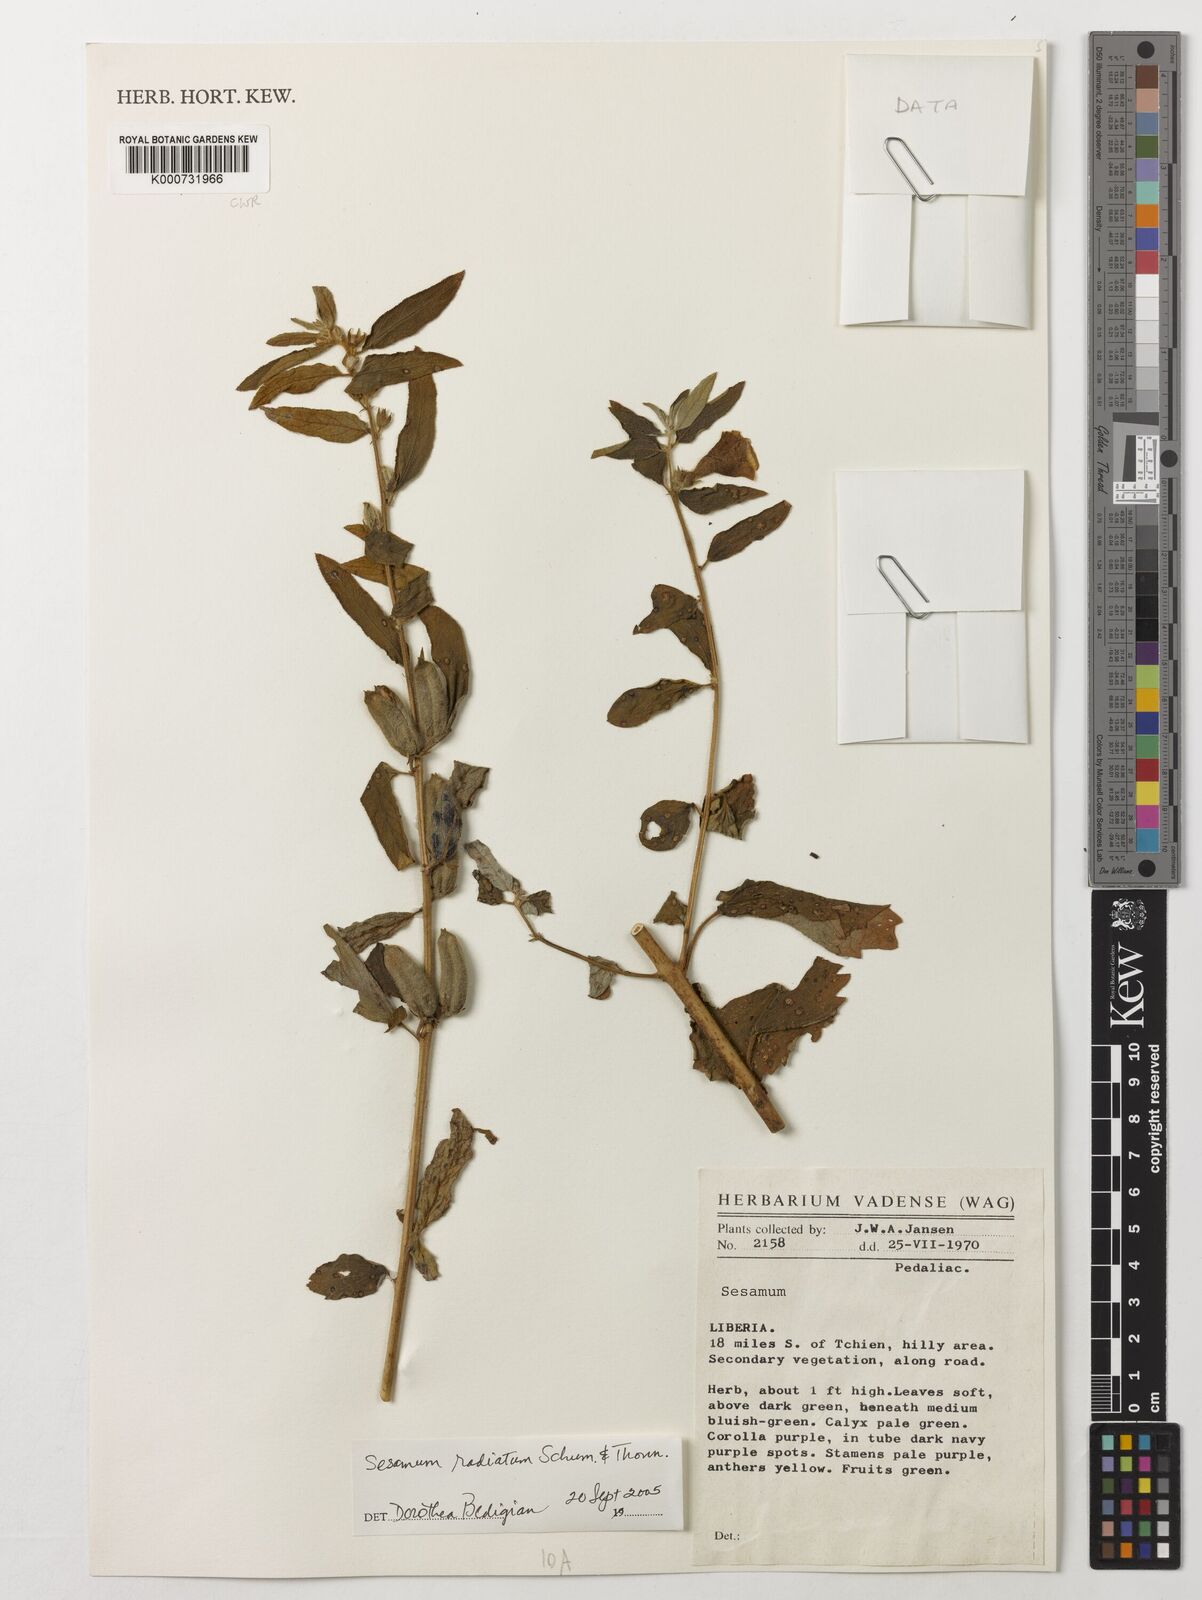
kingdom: Plantae
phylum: Tracheophyta
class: Magnoliopsida
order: Lamiales
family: Pedaliaceae
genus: Sesamum
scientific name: Sesamum
